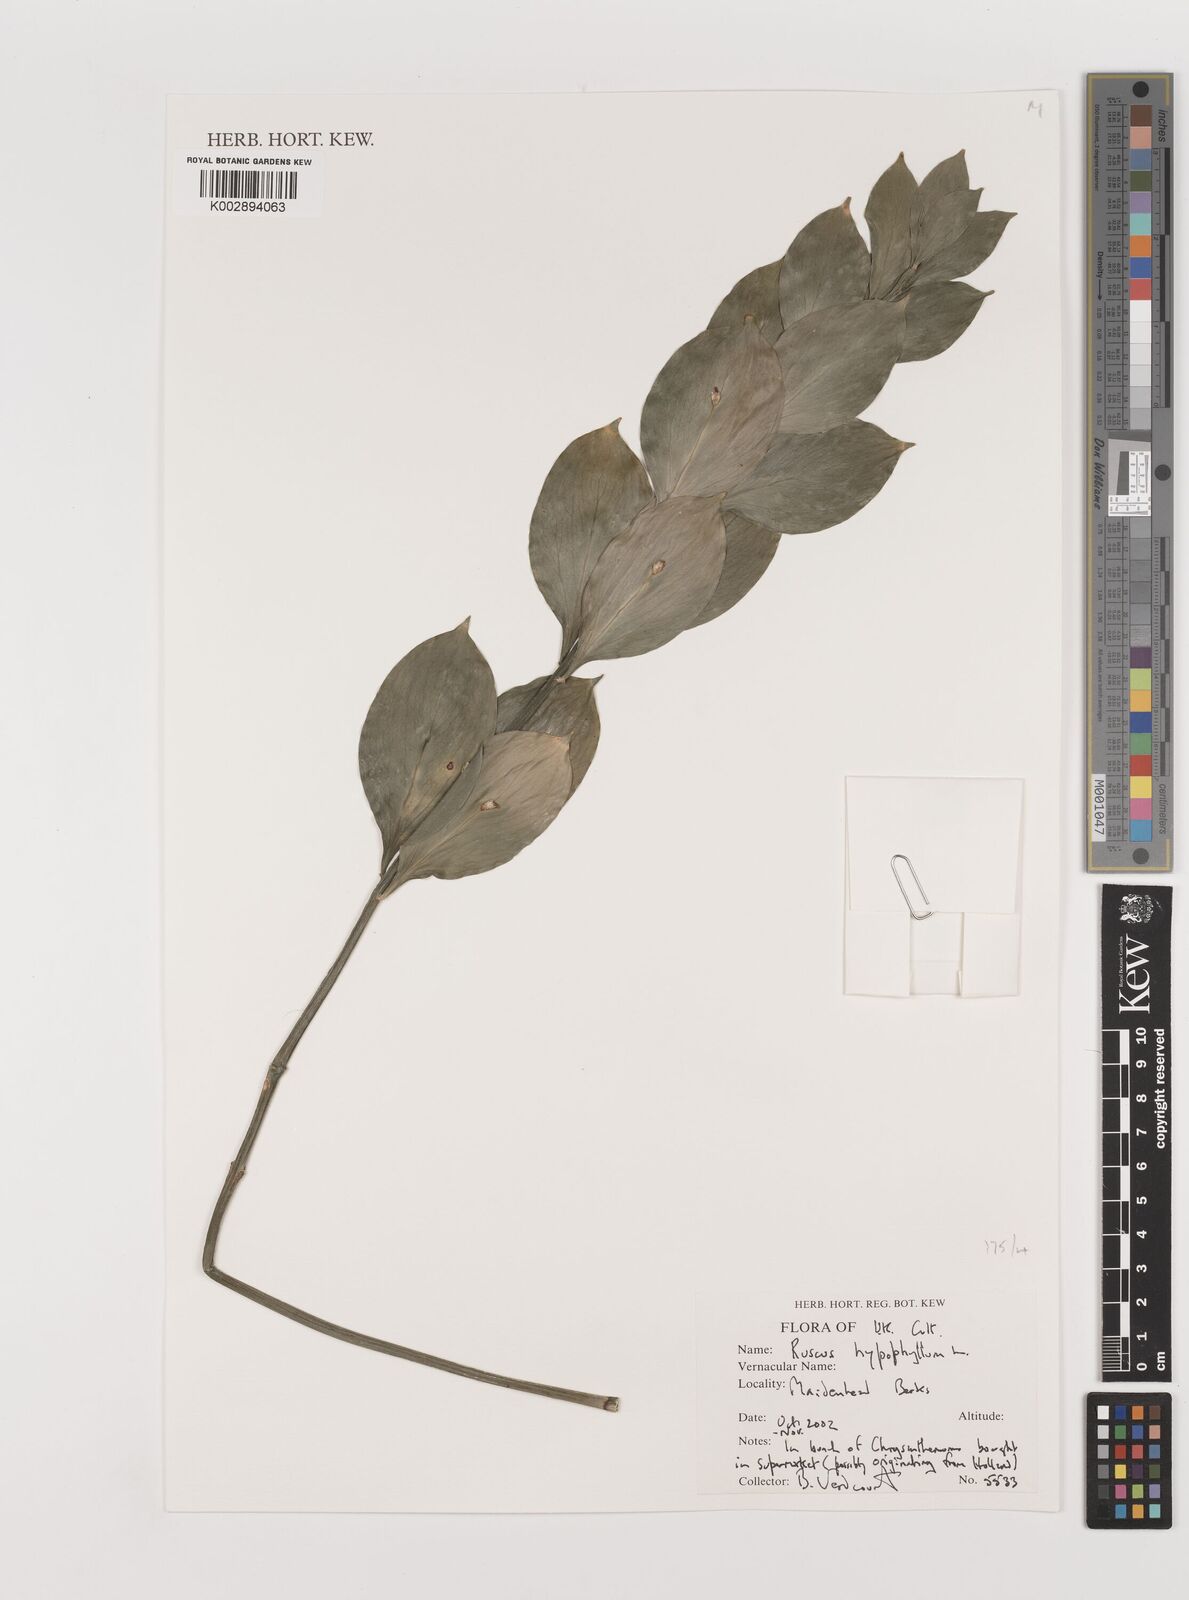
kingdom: Plantae
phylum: Tracheophyta
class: Liliopsida
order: Asparagales
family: Asparagaceae
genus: Ruscus
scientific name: Ruscus hypophyllum
